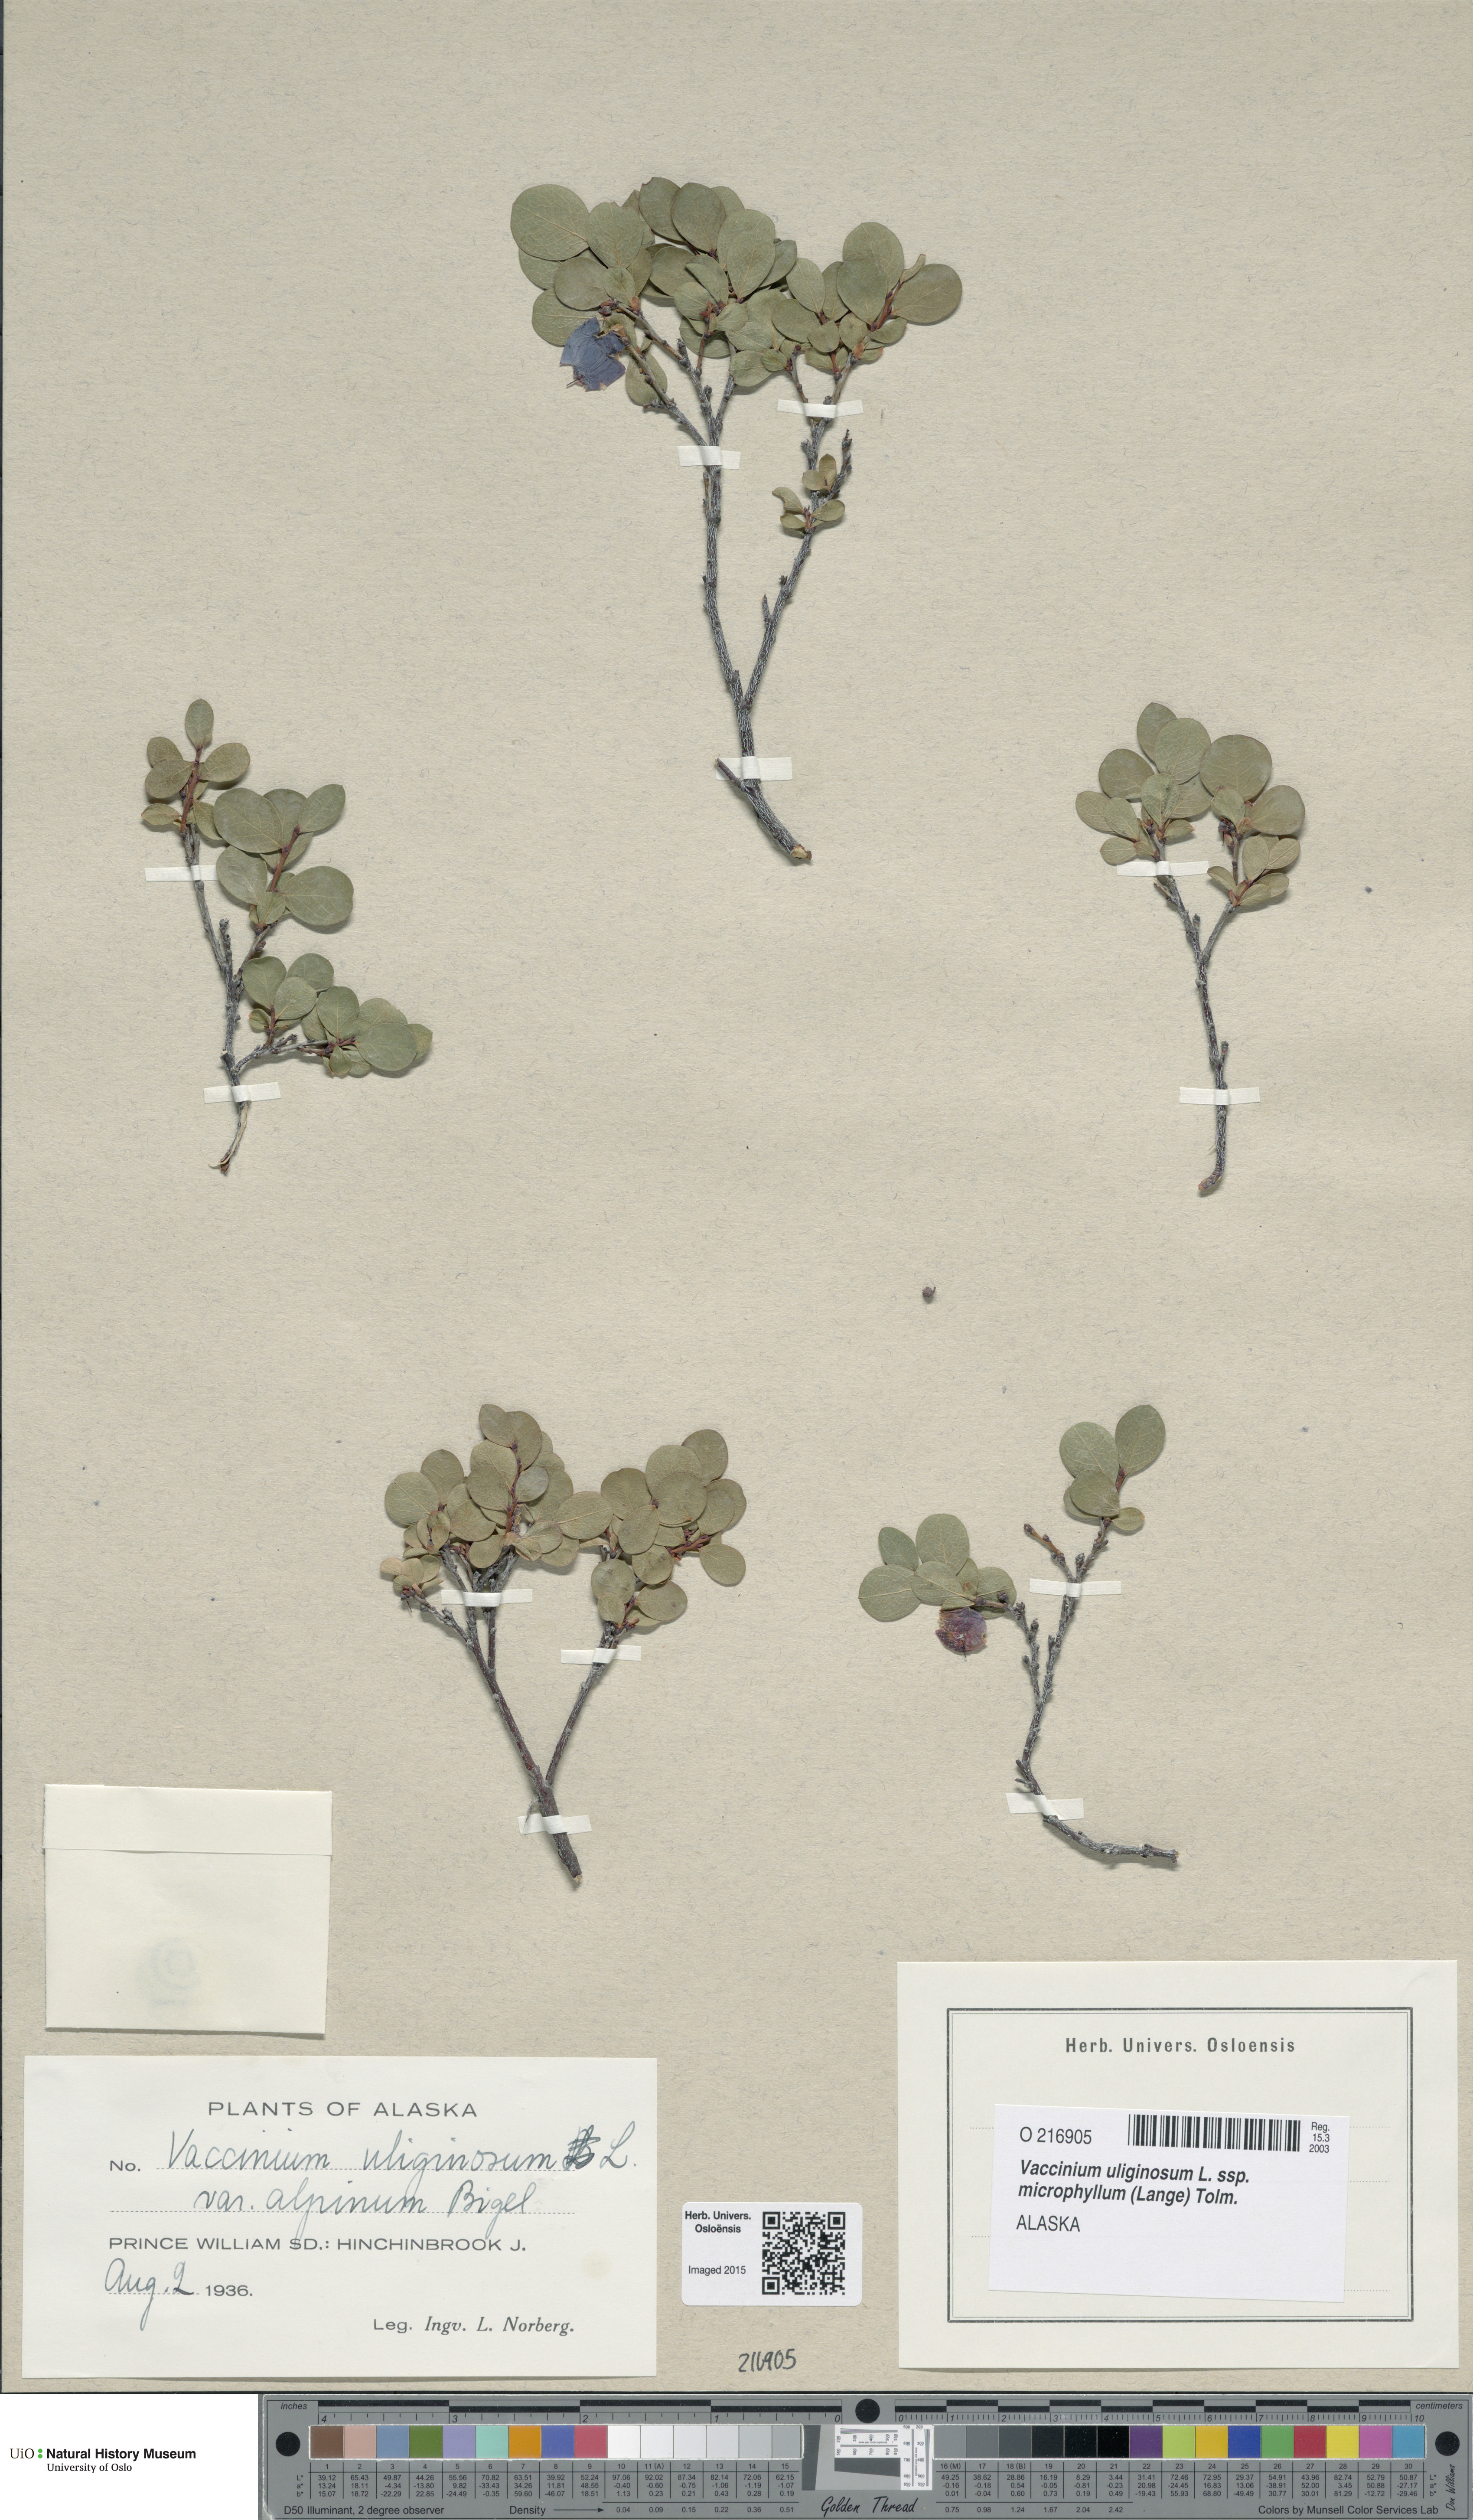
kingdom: Plantae
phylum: Tracheophyta
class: Magnoliopsida
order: Ericales
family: Ericaceae
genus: Vaccinium
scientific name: Vaccinium uliginosum
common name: Bog bilberry
